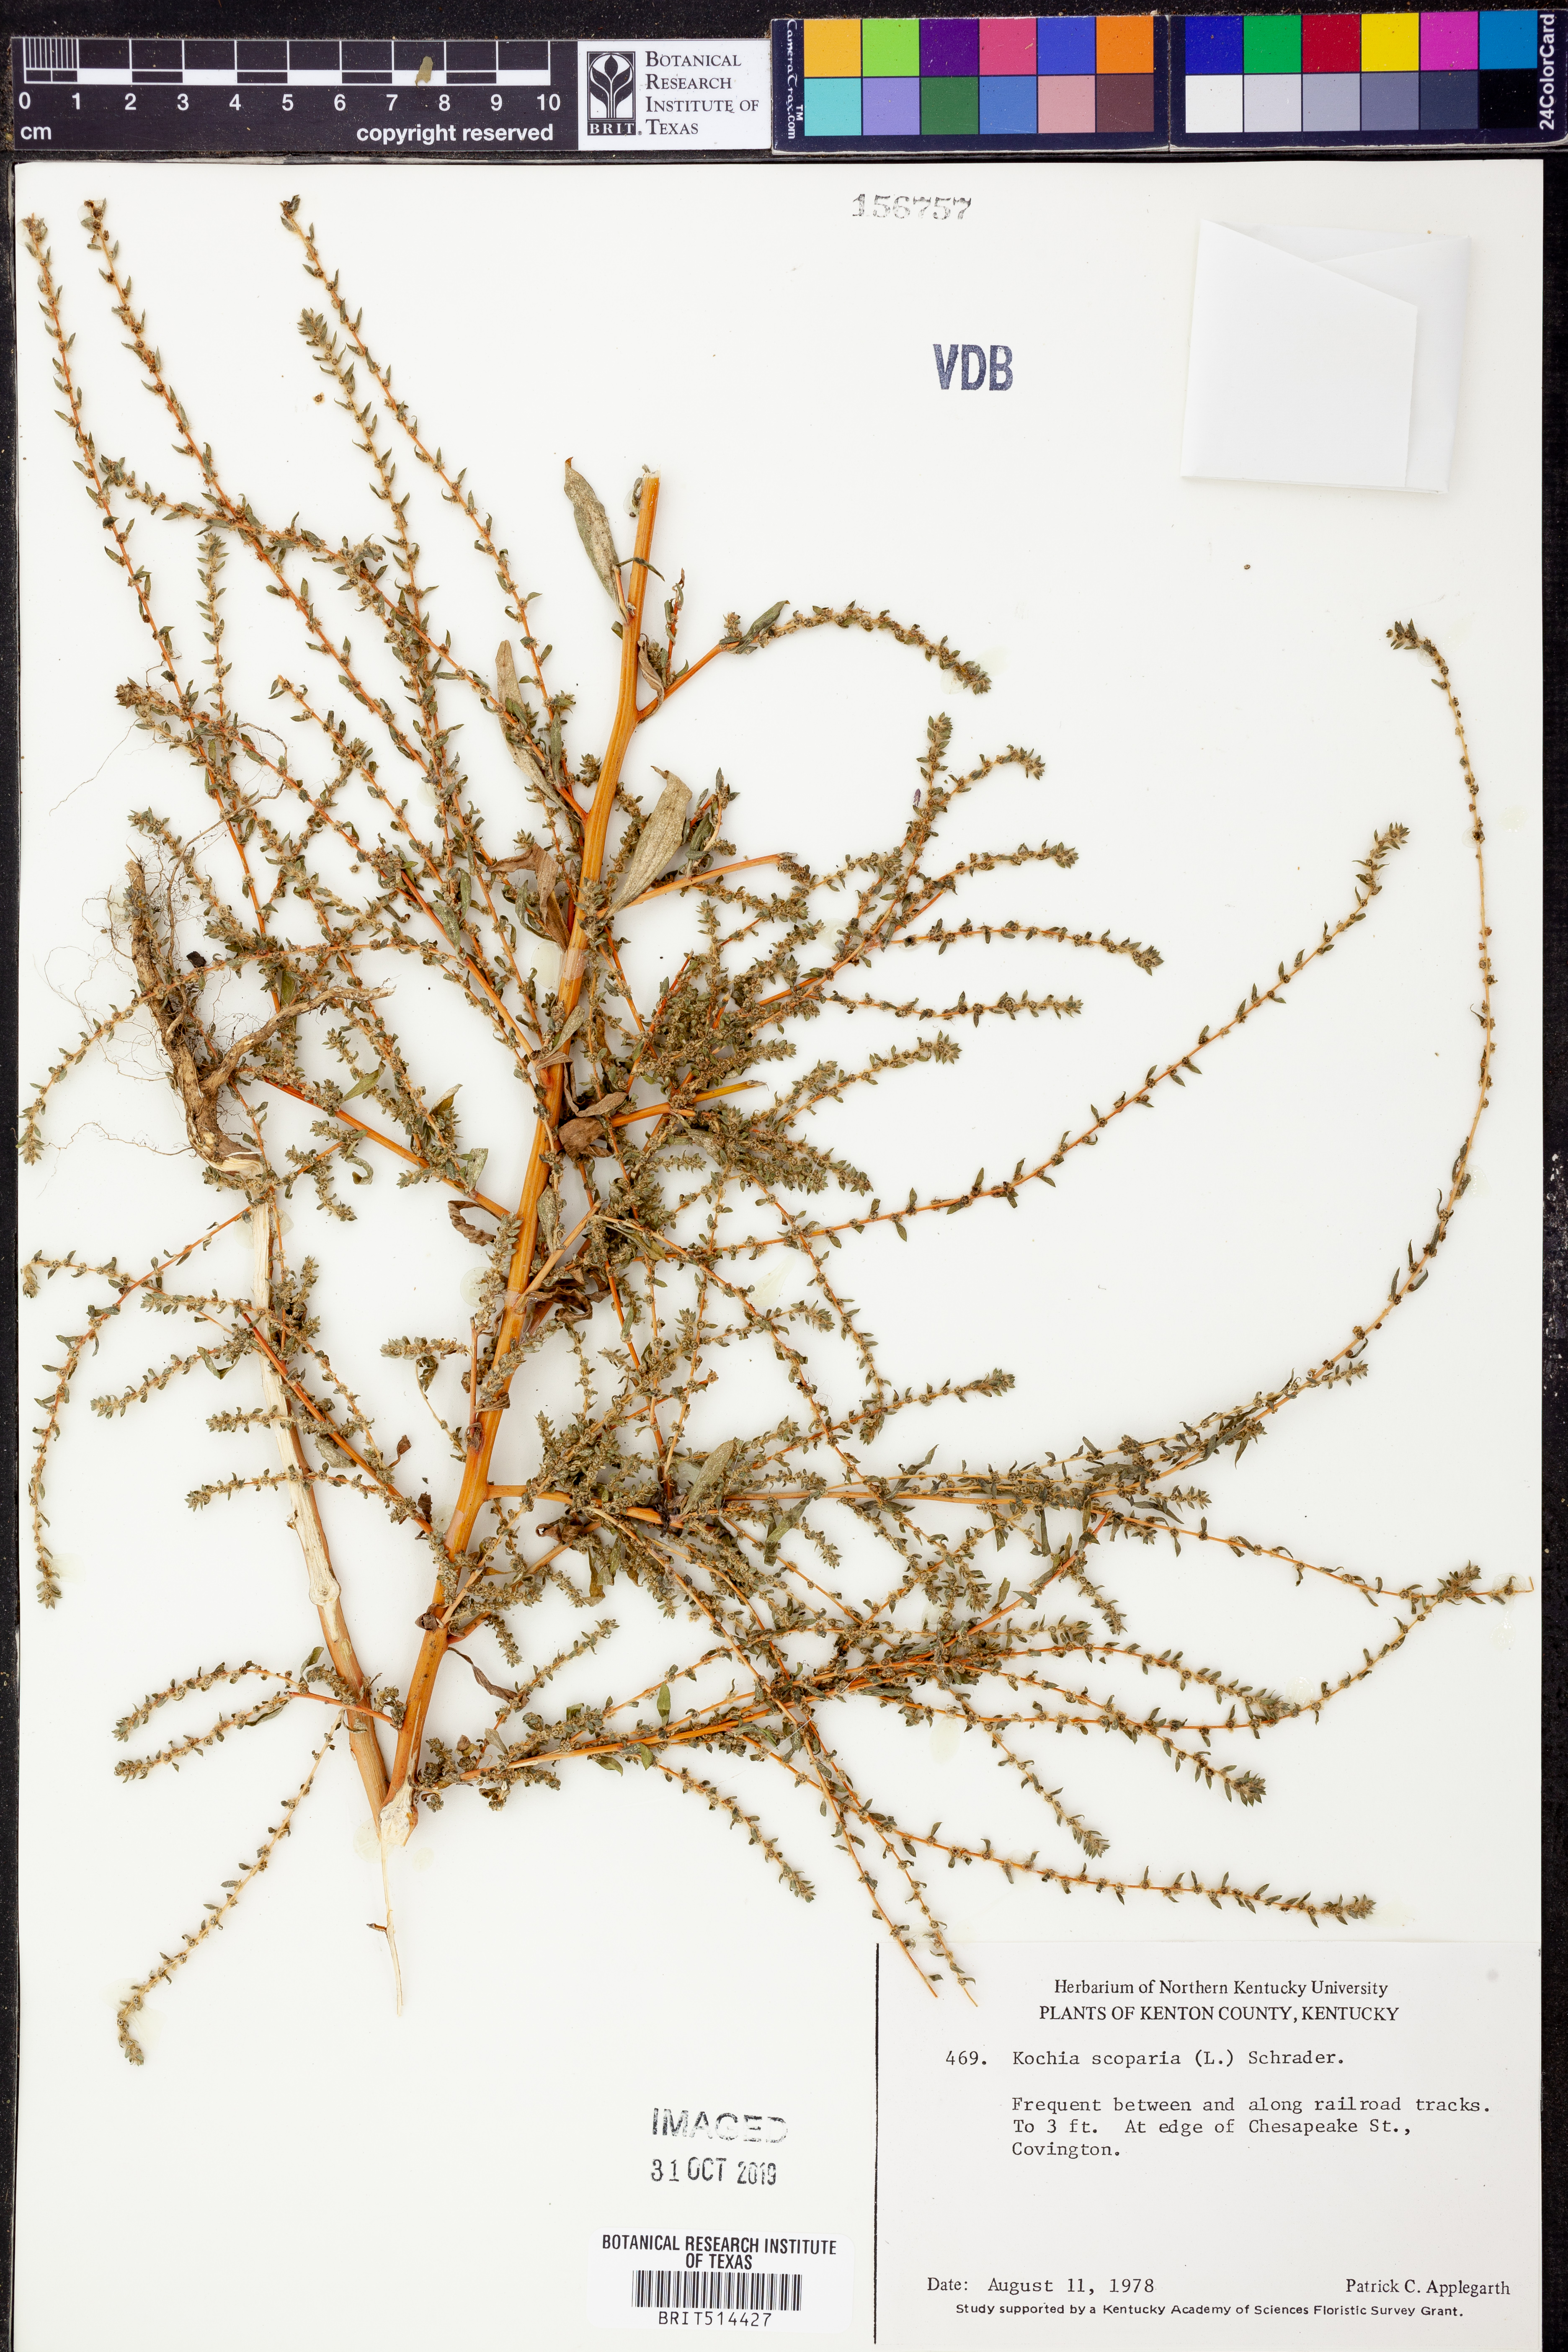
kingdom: Plantae
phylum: Tracheophyta
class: Magnoliopsida
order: Caryophyllales
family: Amaranthaceae
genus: Bassia
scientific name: Bassia scoparia
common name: Belvedere
